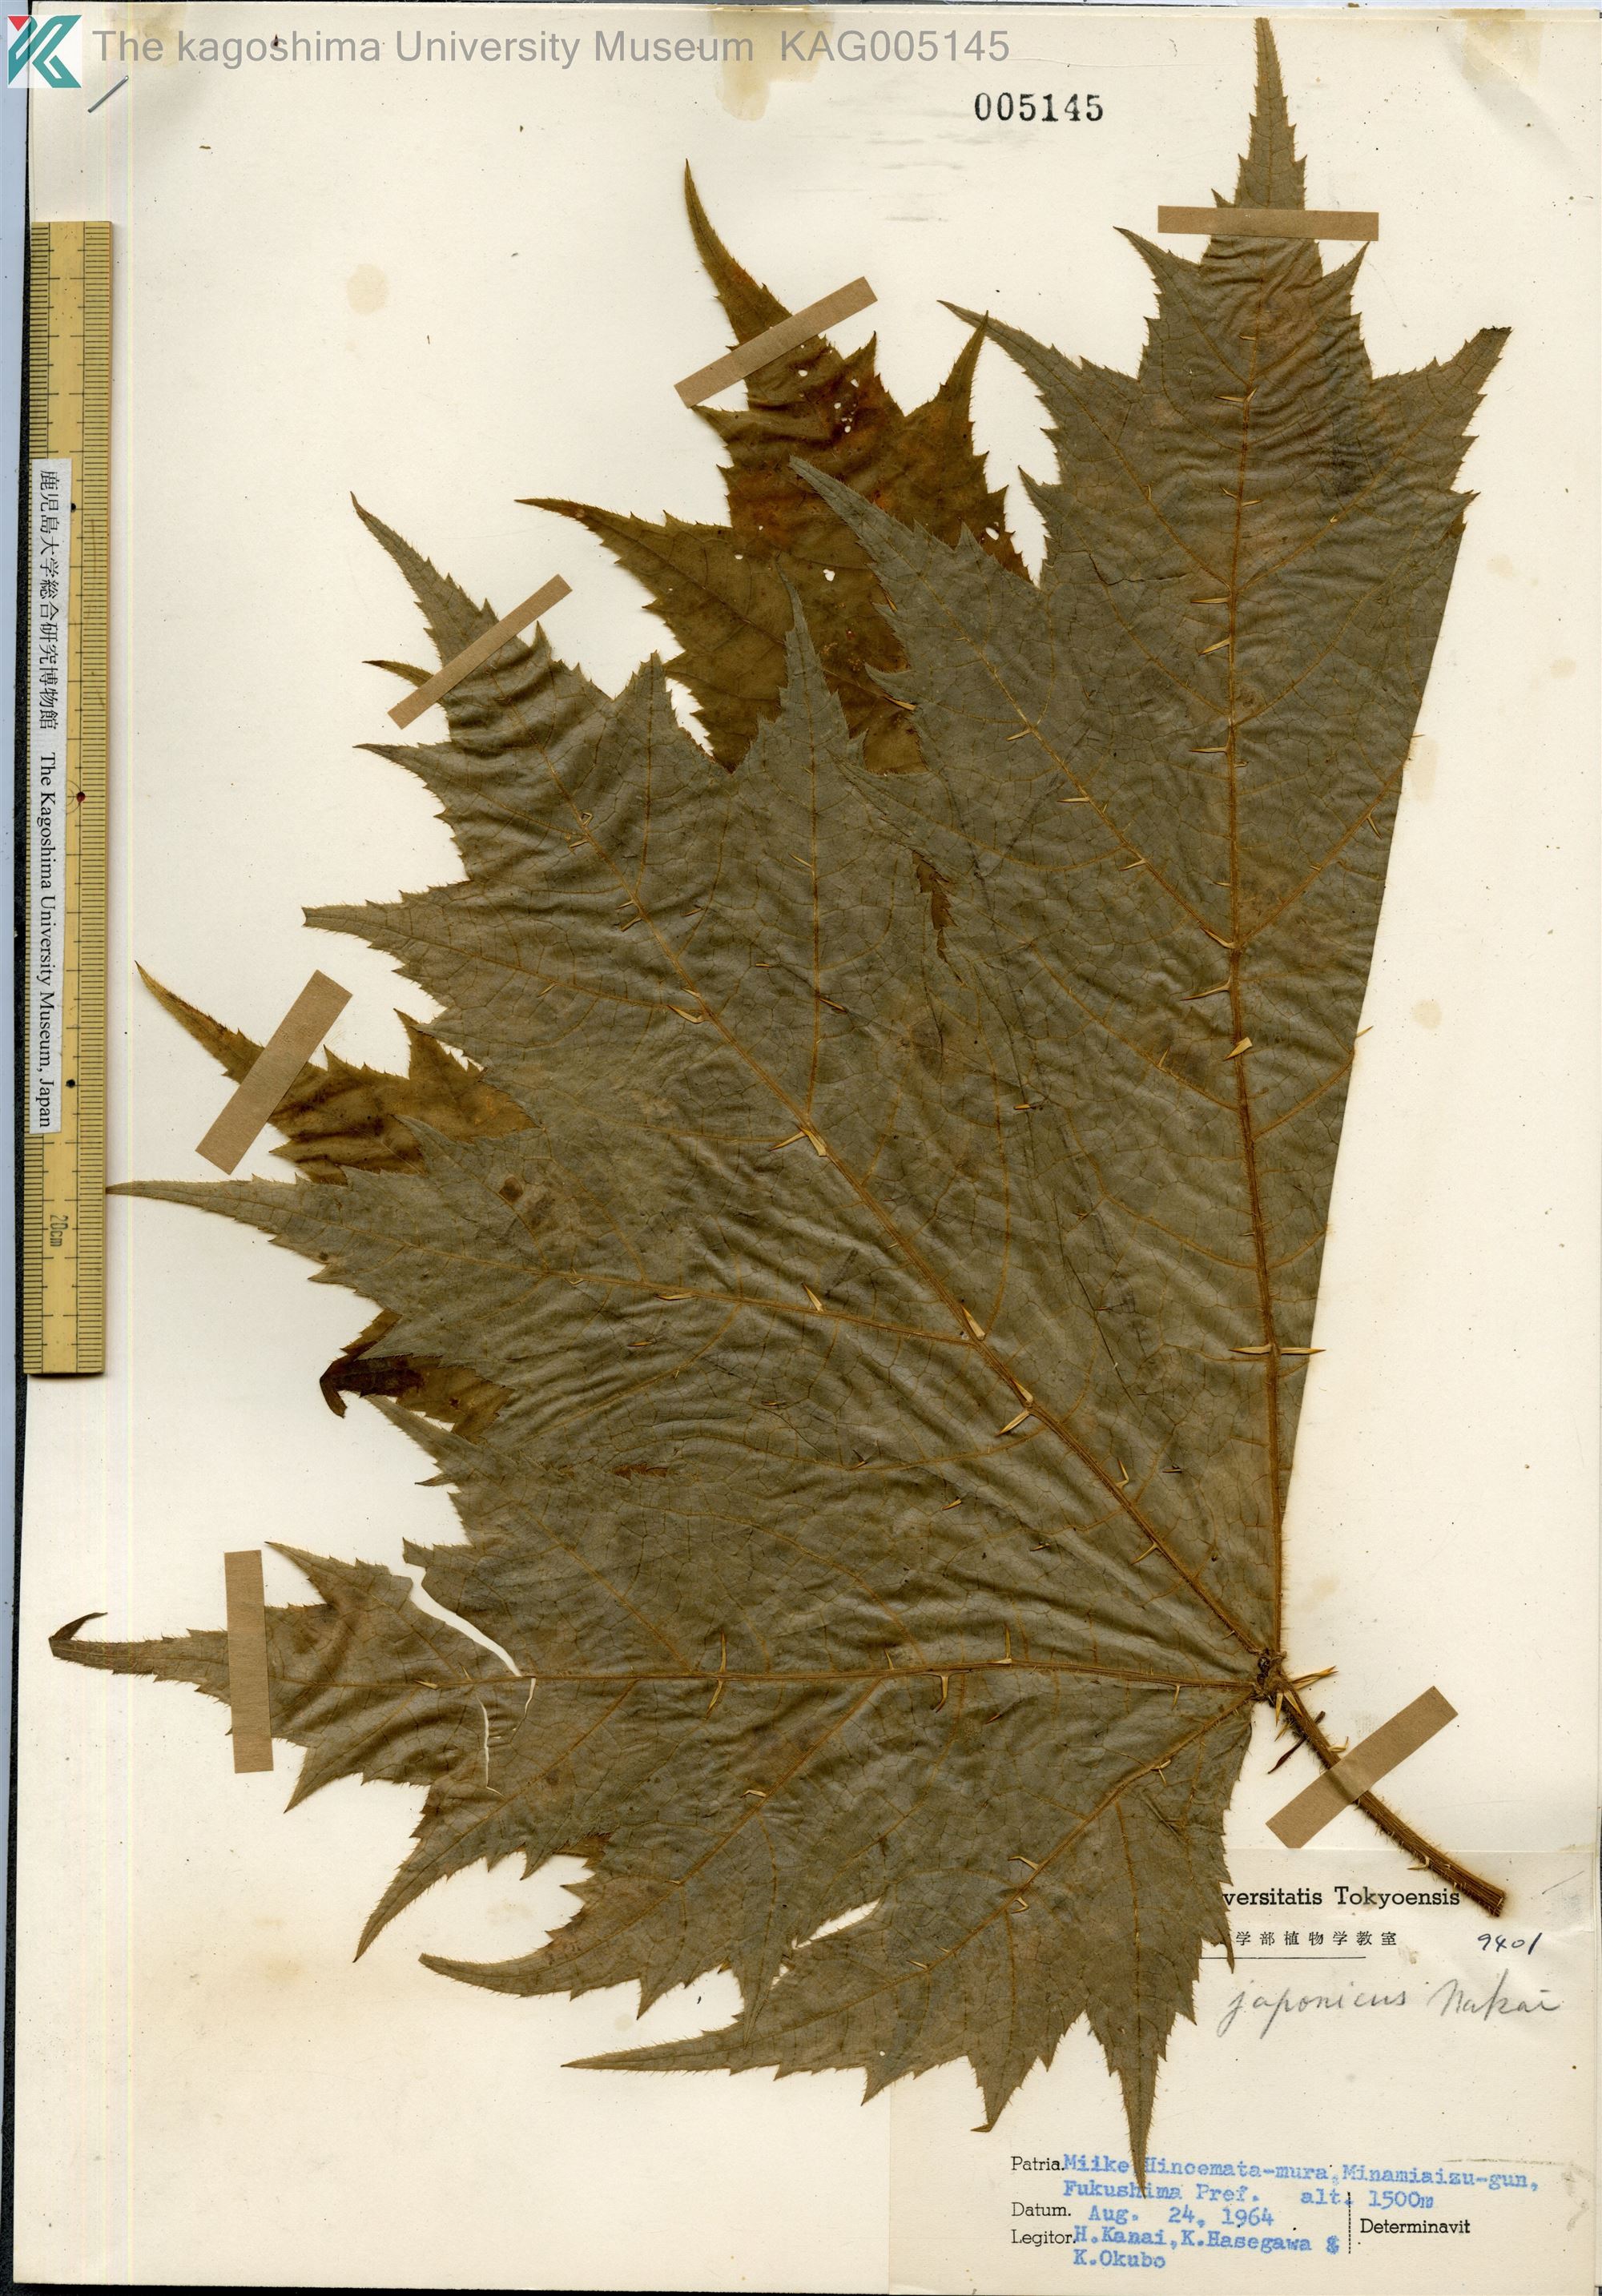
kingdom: Plantae
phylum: Tracheophyta
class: Magnoliopsida
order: Apiales
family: Araliaceae
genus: Oplopanax
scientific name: Oplopanax japonicus
